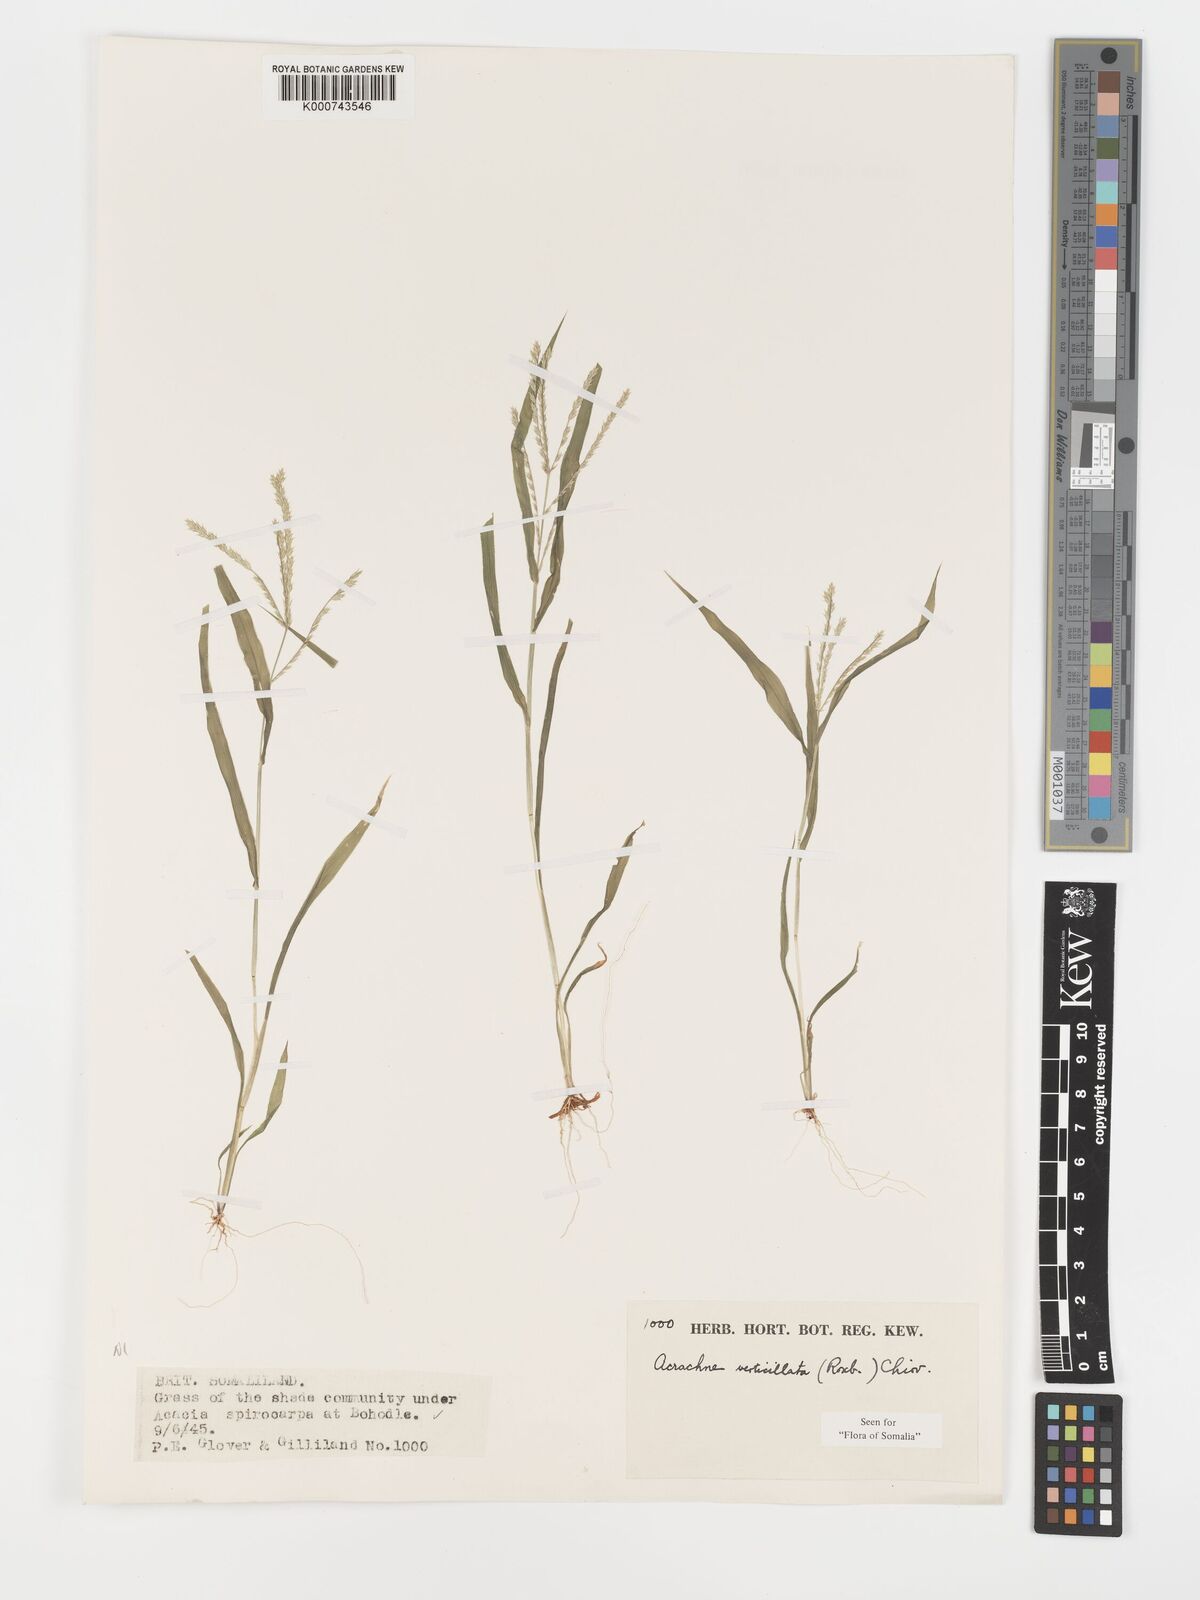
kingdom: Plantae
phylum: Tracheophyta
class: Liliopsida
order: Poales
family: Poaceae
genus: Acrachne
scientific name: Acrachne racemosa
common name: Goosegrass
